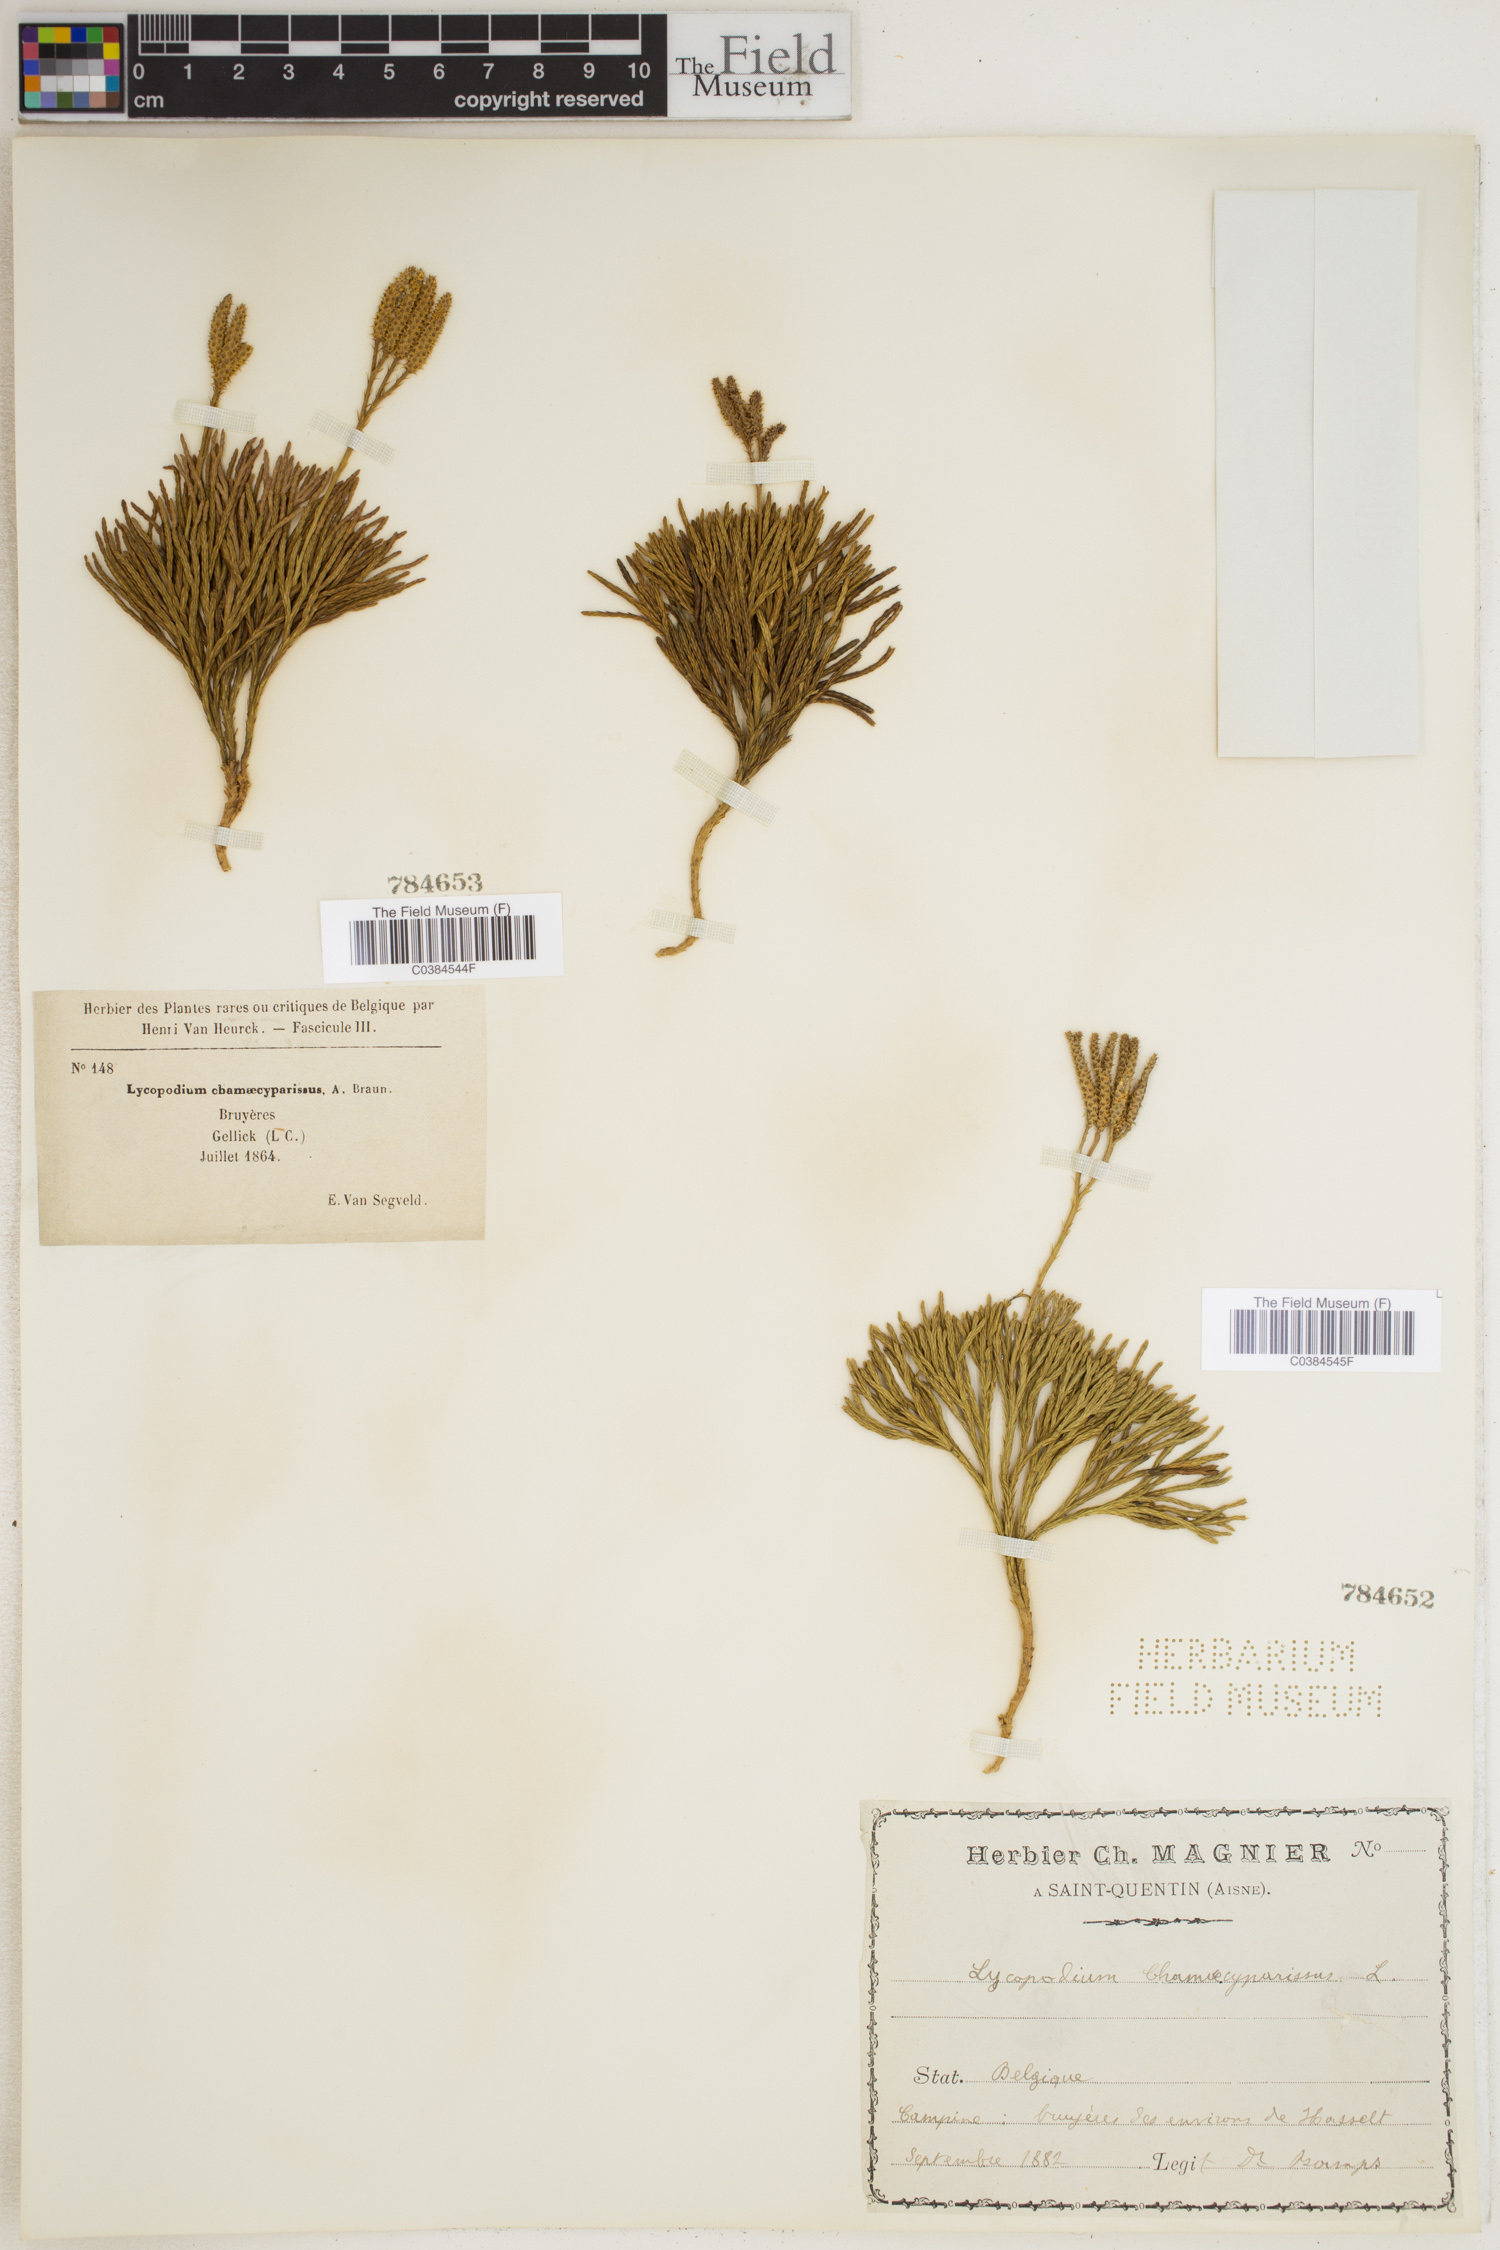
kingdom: Plantae
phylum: Tracheophyta
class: Lycopodiopsida
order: Lycopodiales
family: Lycopodiaceae
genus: Diphasiastrum
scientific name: Diphasiastrum tristachyum
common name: Blue ground-cedar
